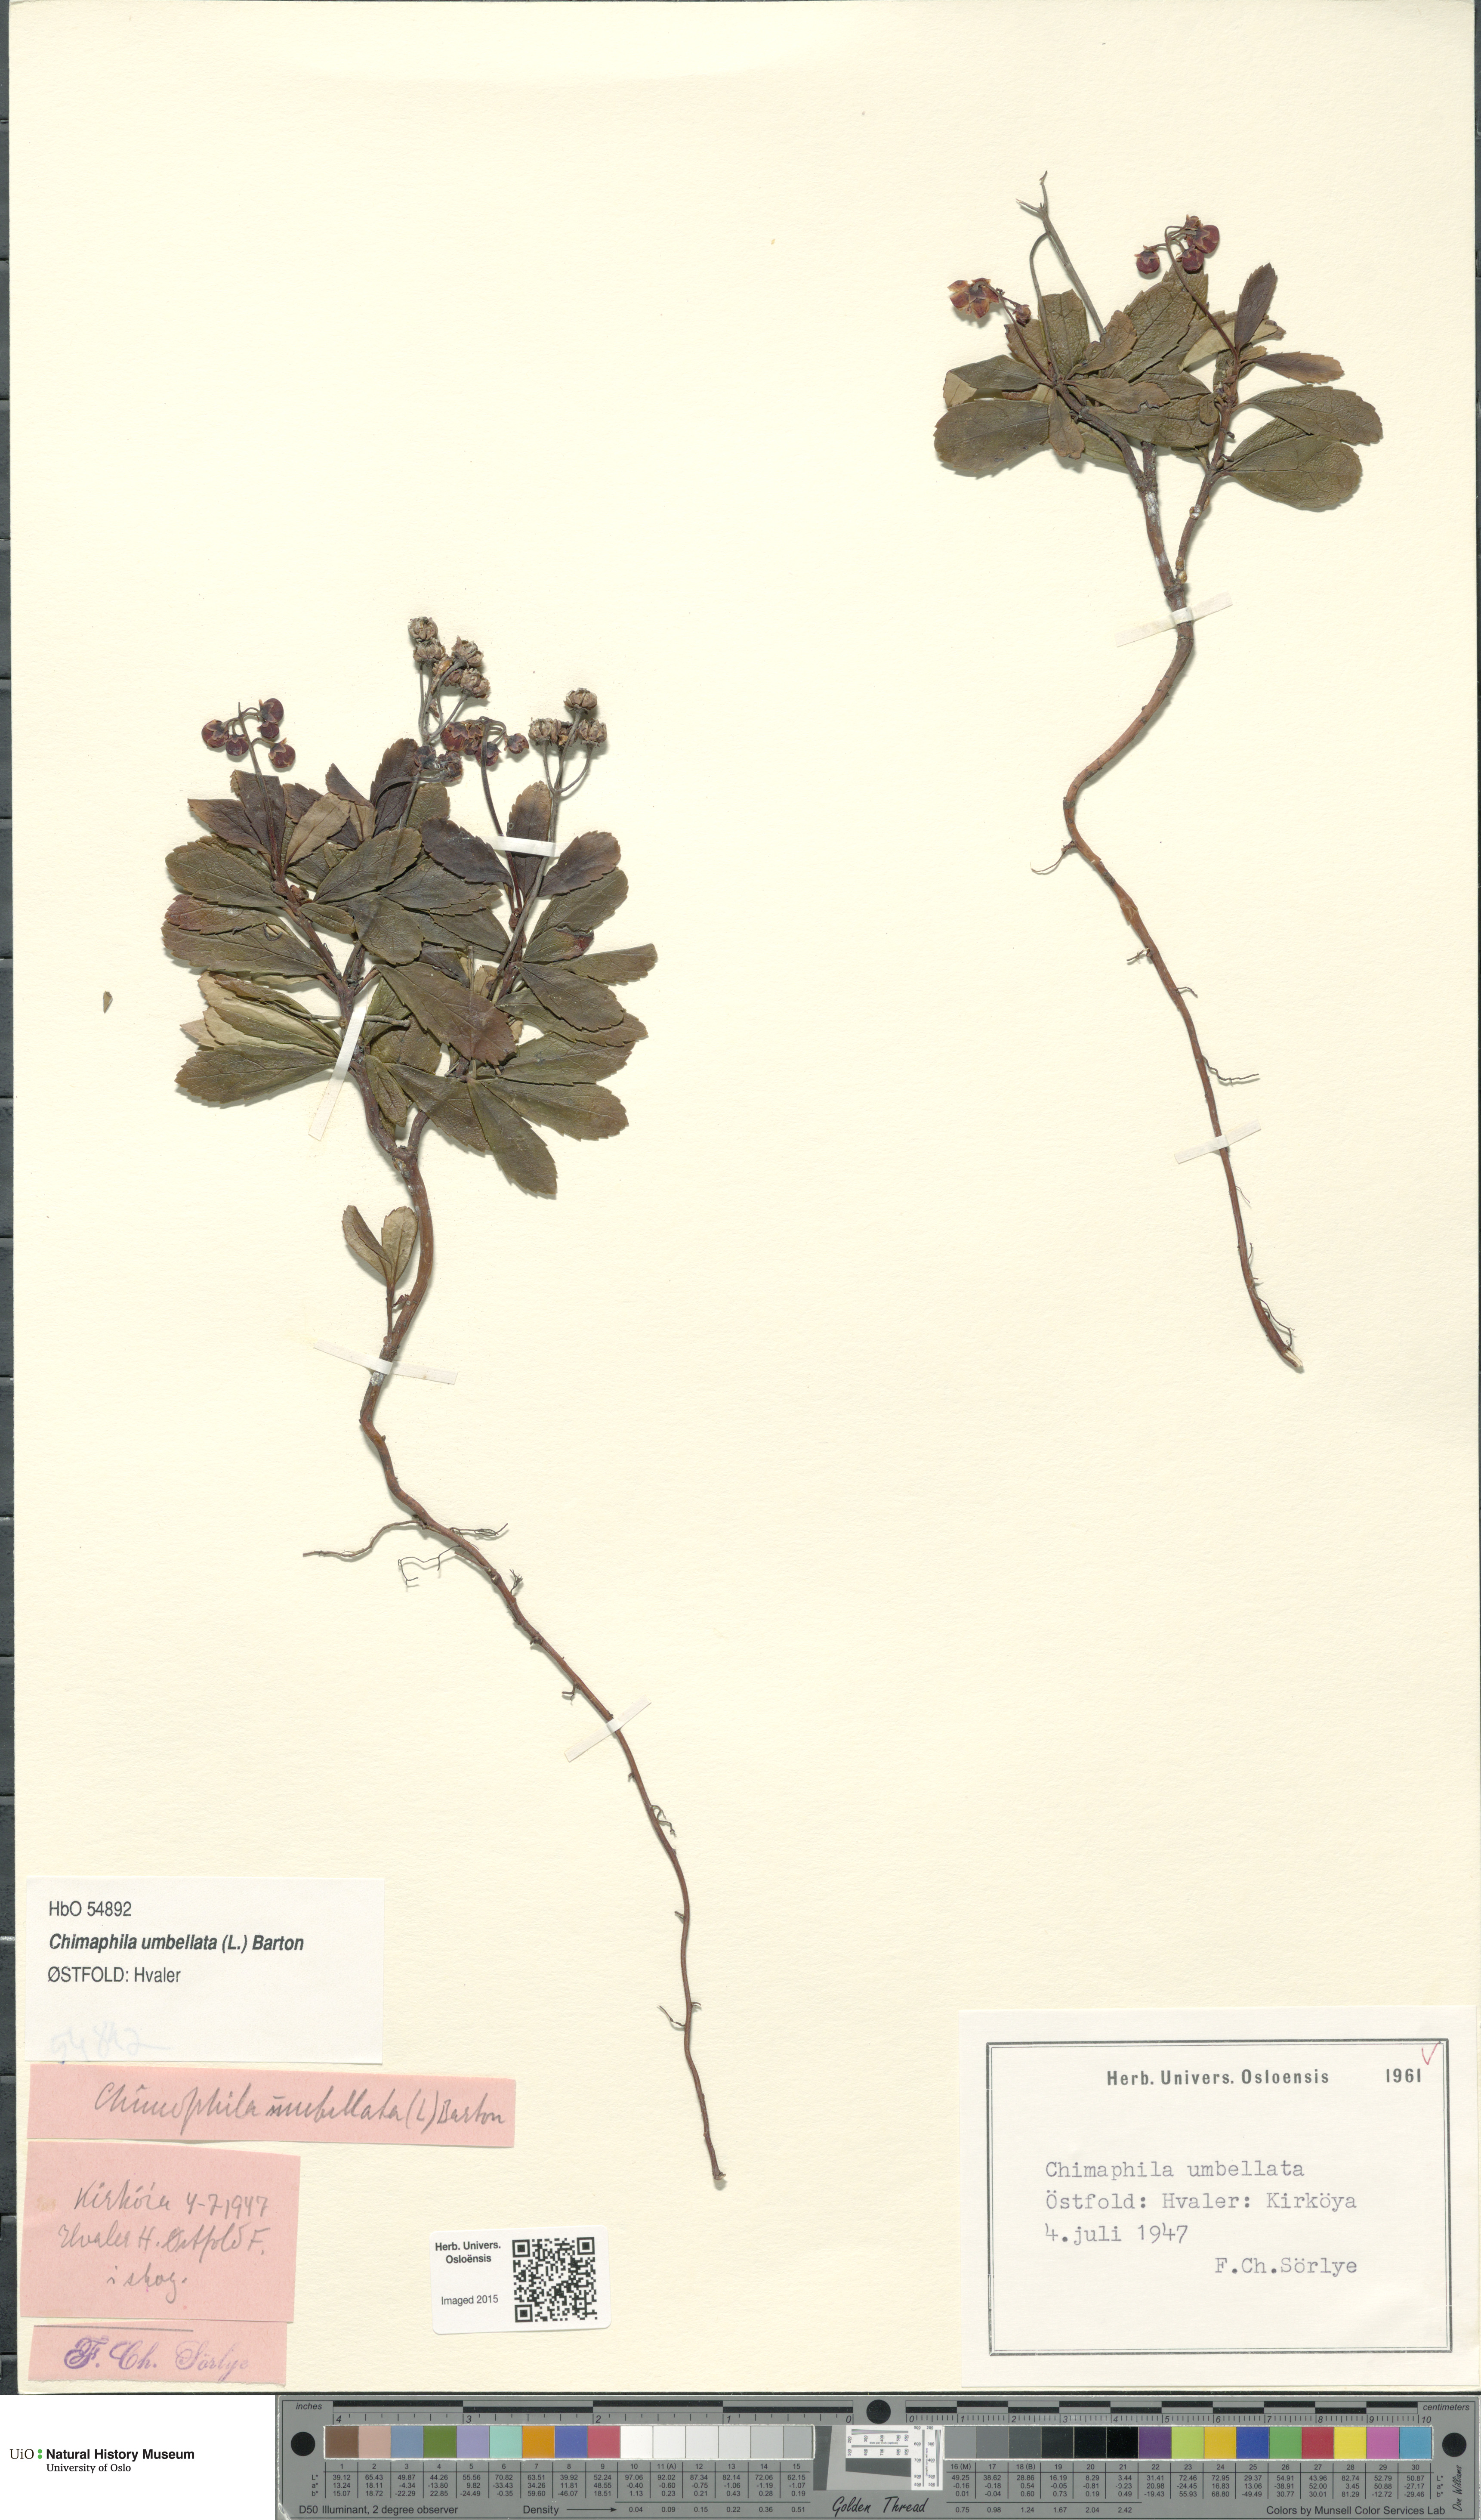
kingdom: Plantae
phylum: Tracheophyta
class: Magnoliopsida
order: Ericales
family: Ericaceae
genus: Chimaphila
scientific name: Chimaphila umbellata
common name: Pipsissewa
